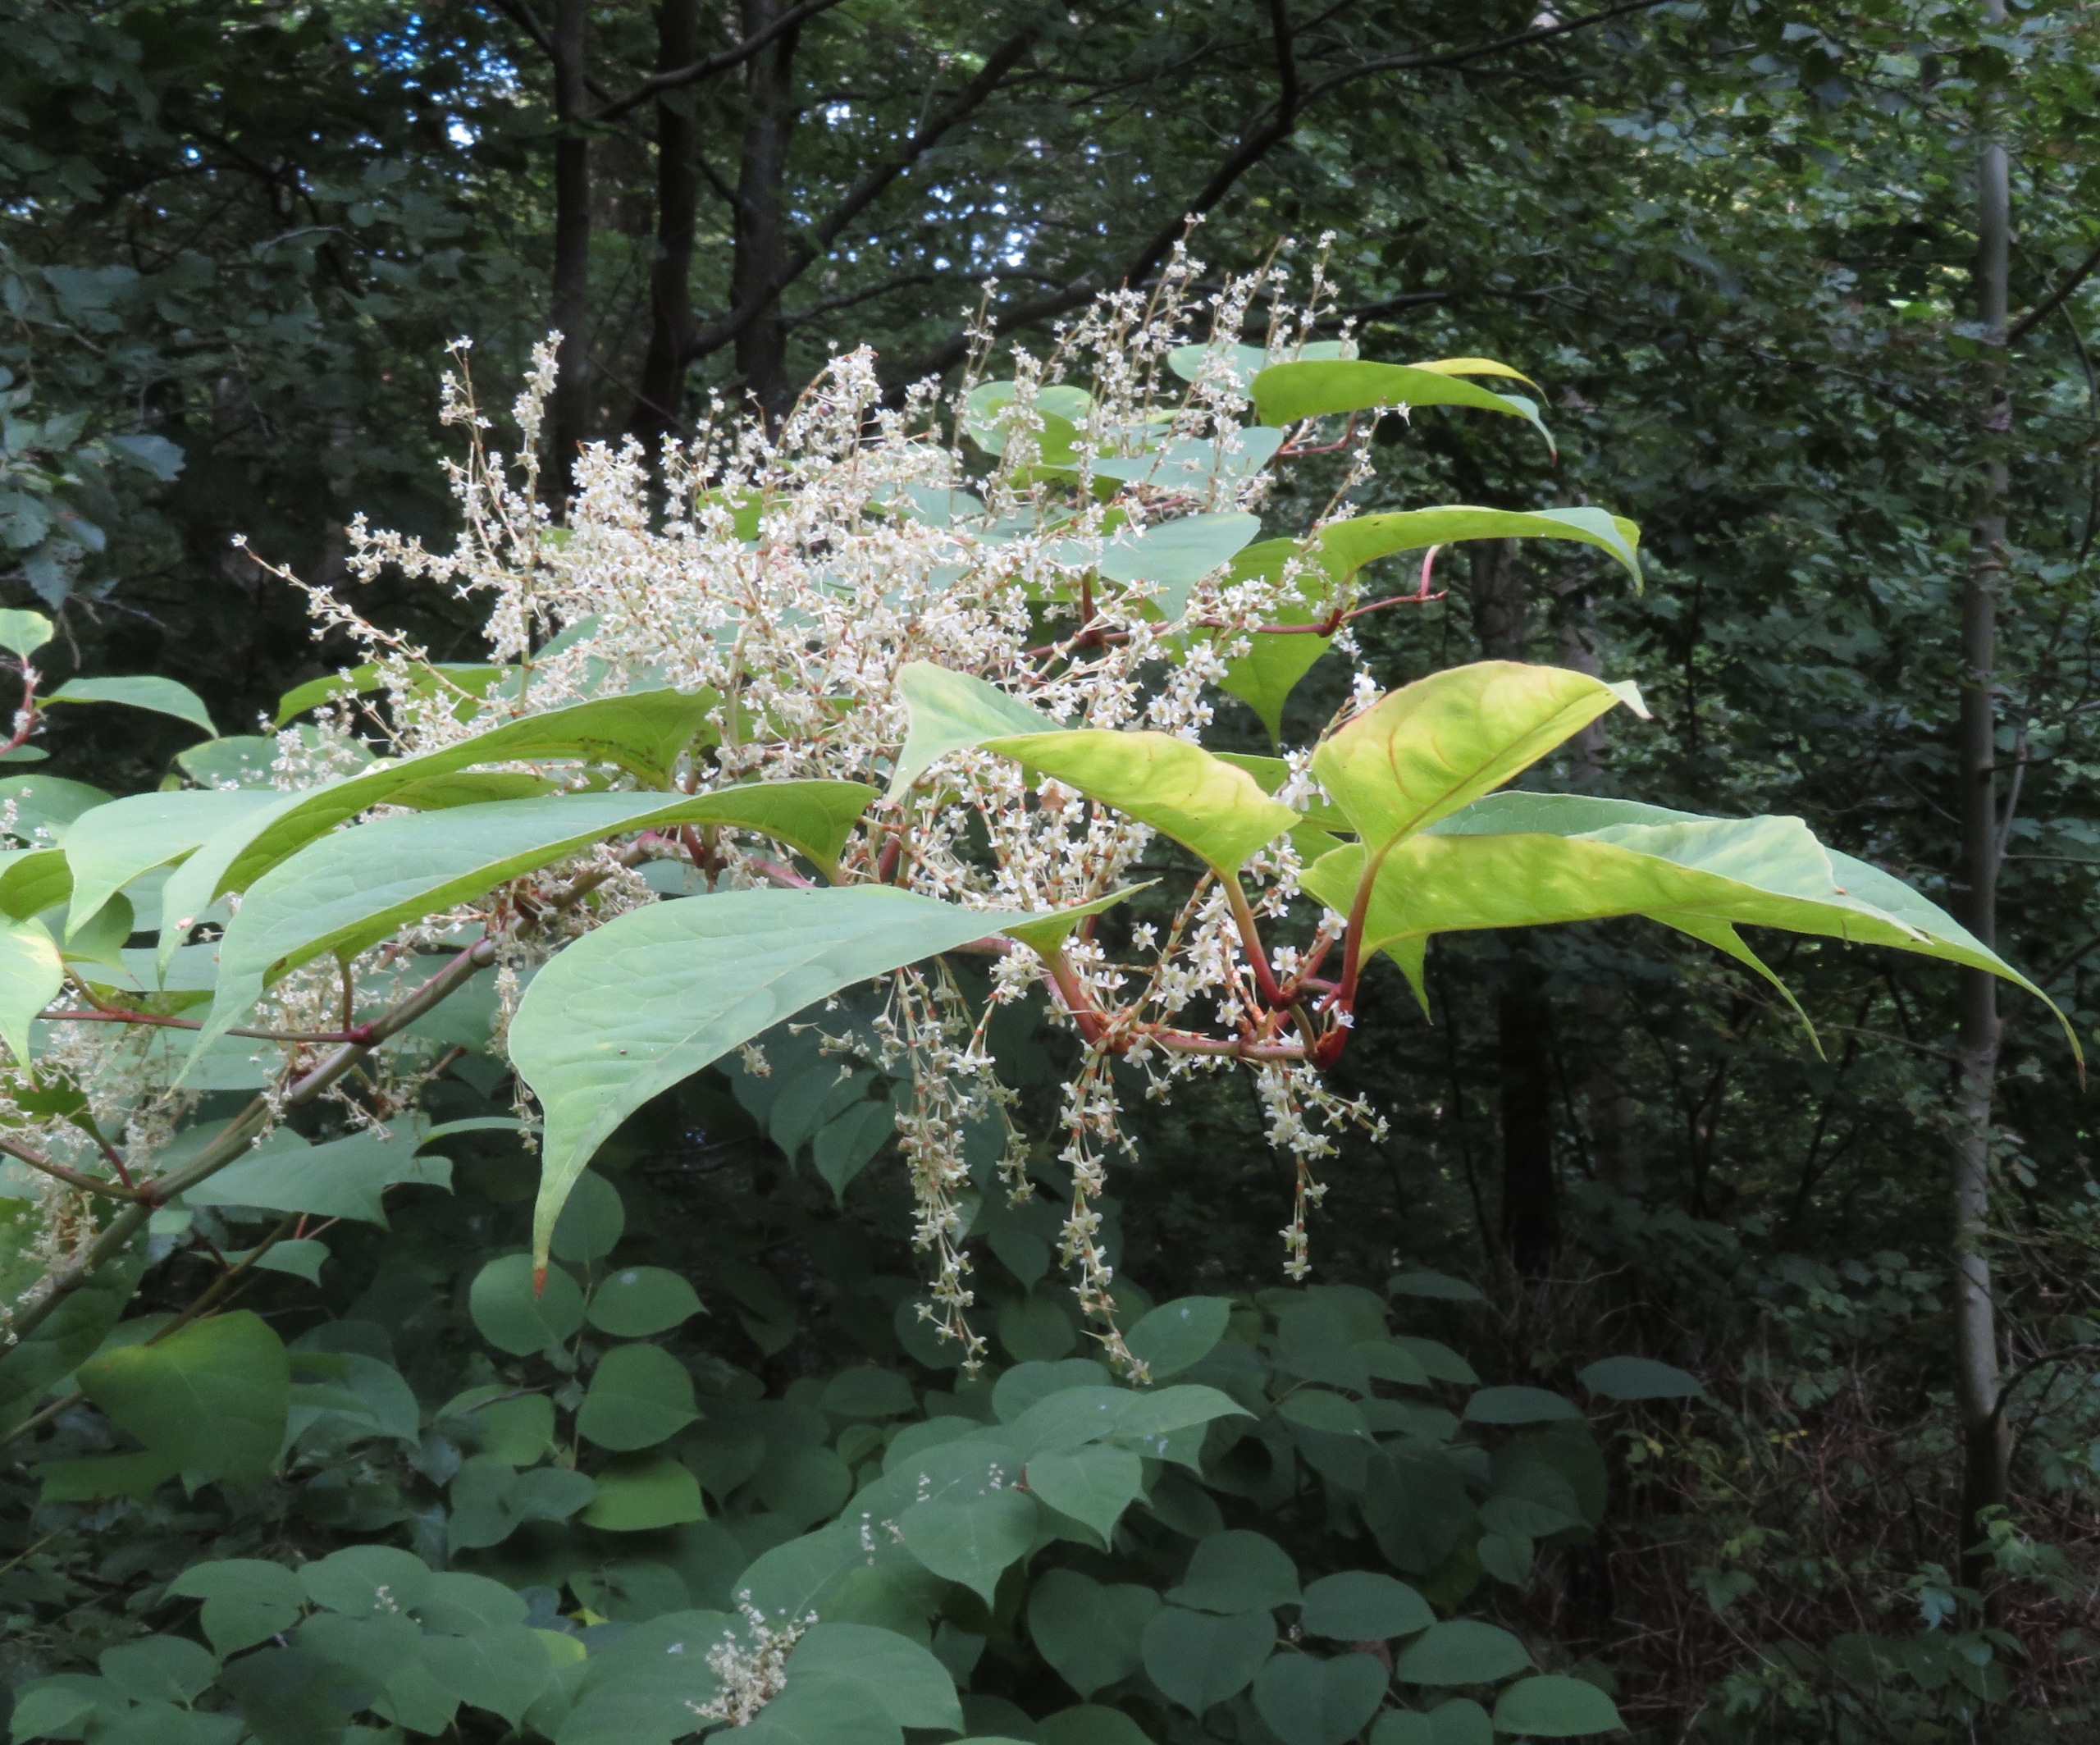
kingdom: Plantae
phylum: Tracheophyta
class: Magnoliopsida
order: Caryophyllales
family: Polygonaceae
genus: Reynoutria
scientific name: Reynoutria japonica
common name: Japan-pileurt
